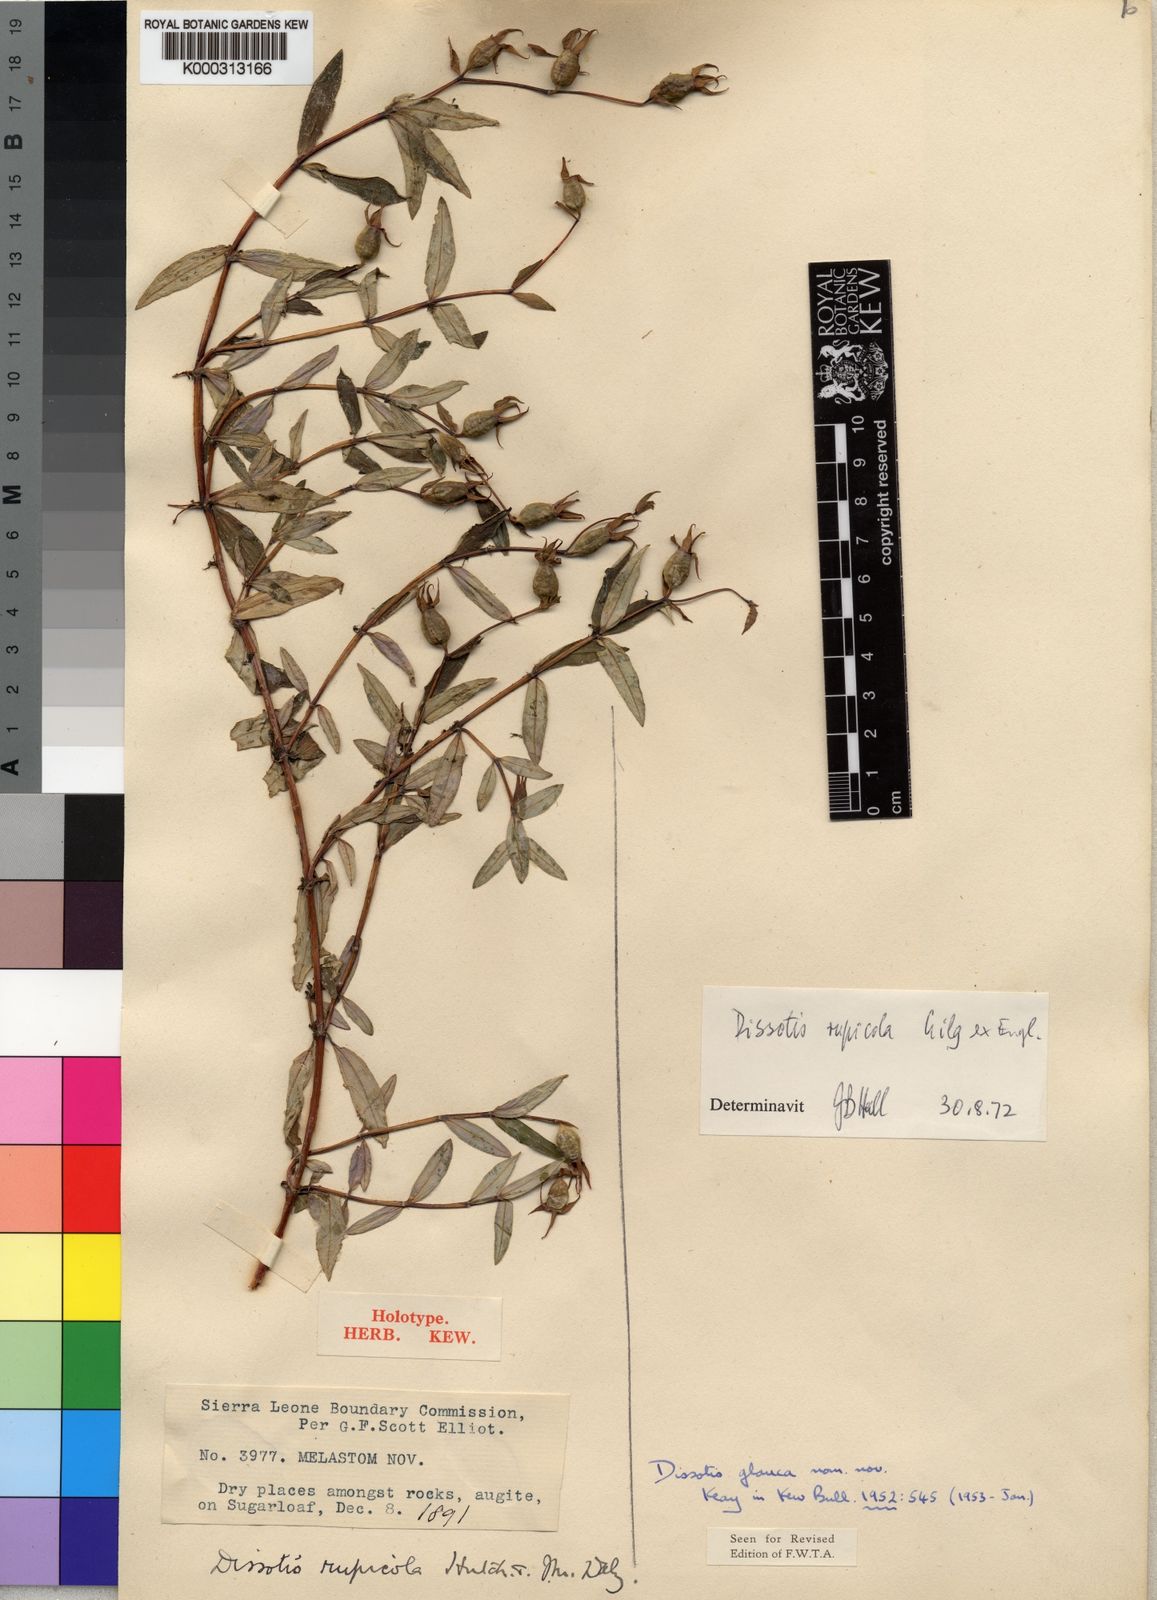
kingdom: Plantae
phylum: Tracheophyta
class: Magnoliopsida
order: Myrtales
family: Melastomataceae
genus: Heterotis
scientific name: Heterotis
